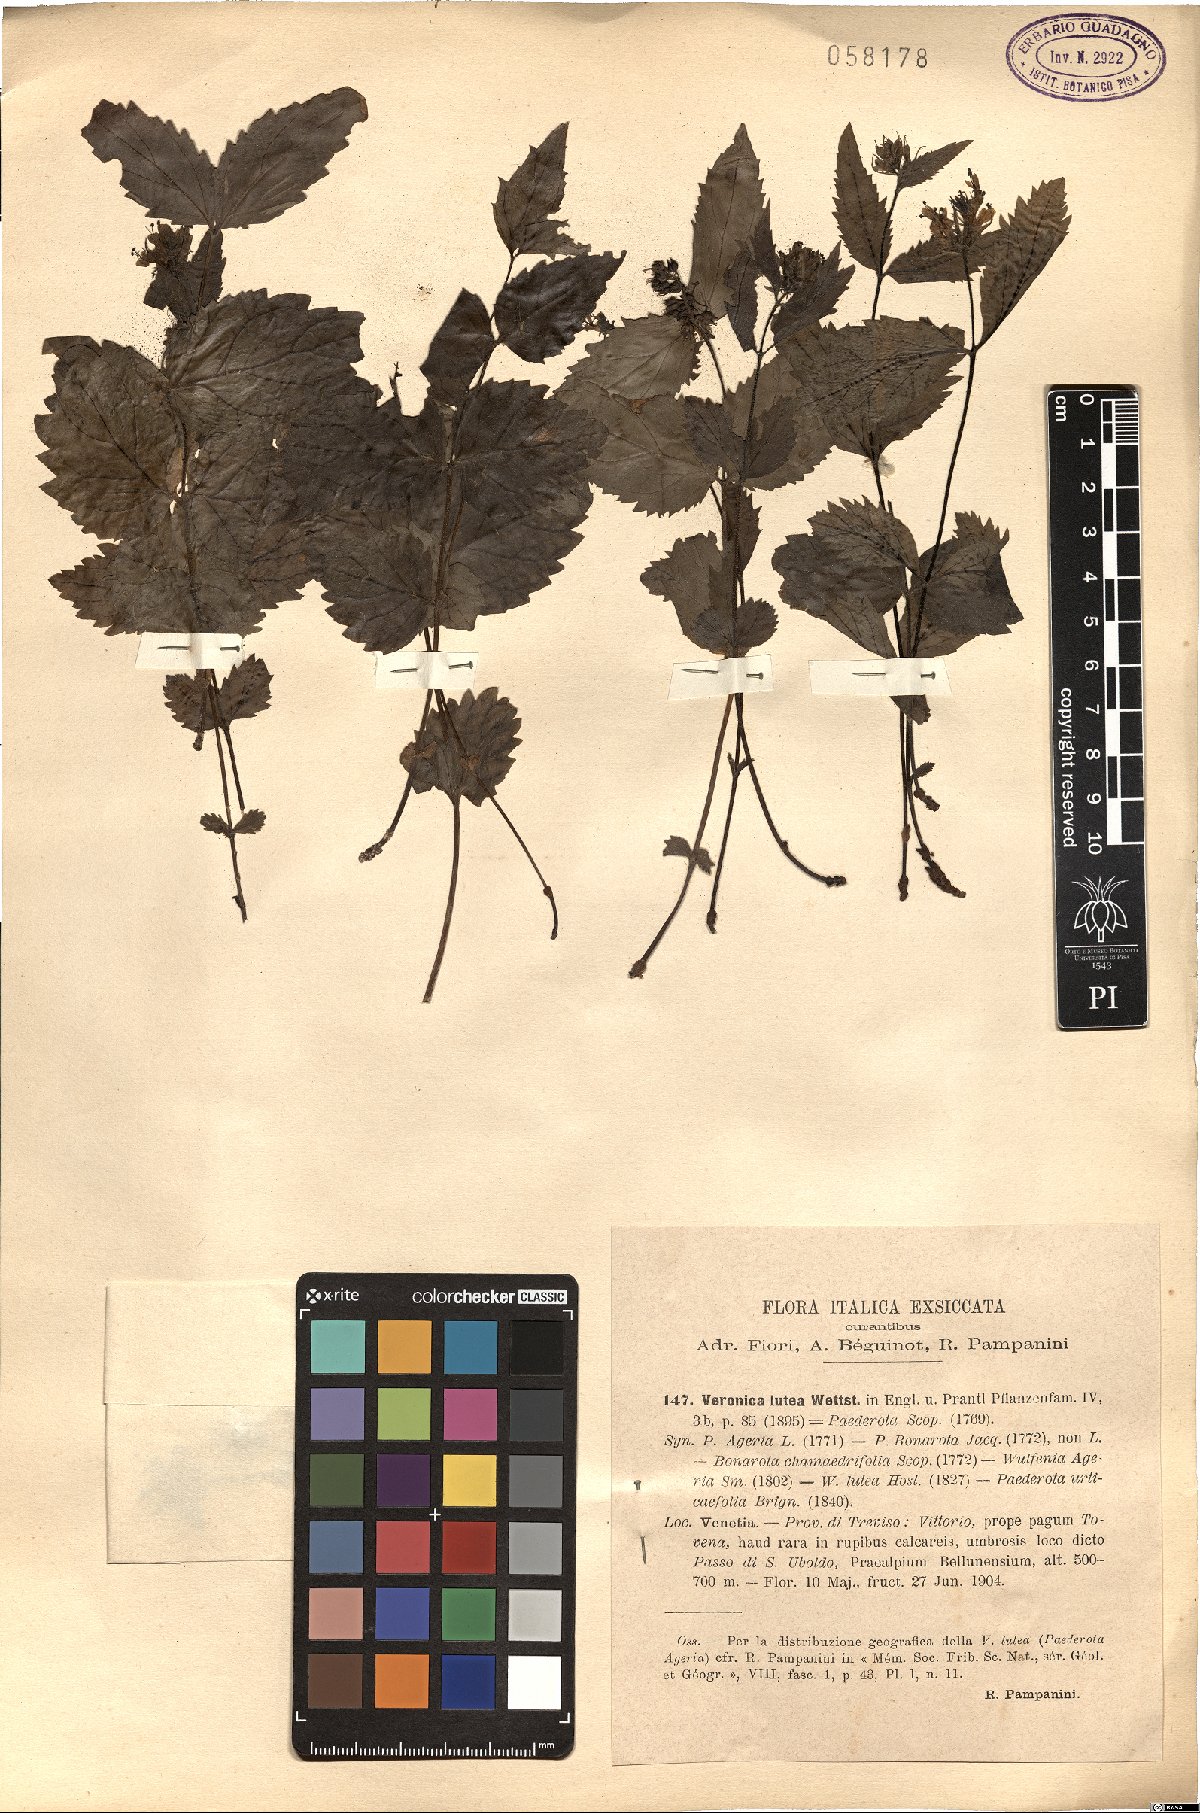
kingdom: Plantae
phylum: Tracheophyta
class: Magnoliopsida
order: Lamiales
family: Plantaginaceae
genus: Paederota
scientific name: Paederota lutea
